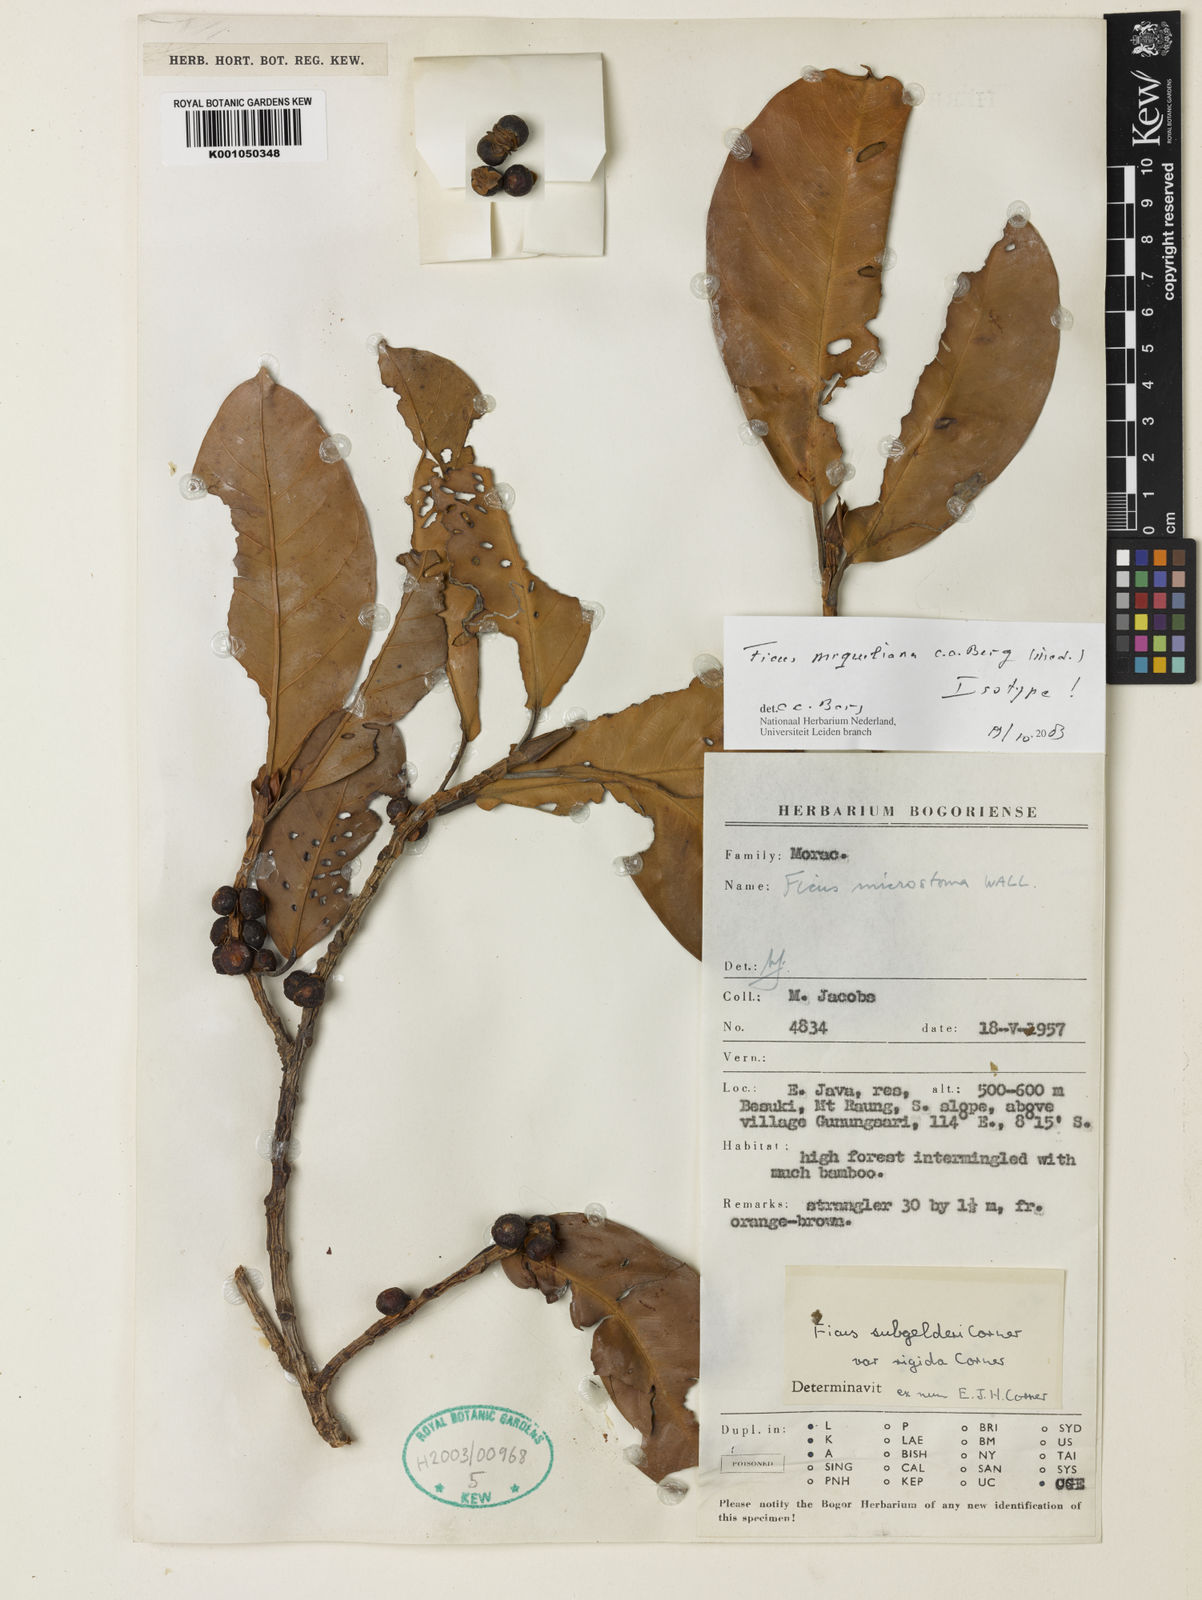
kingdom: Plantae
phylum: Tracheophyta
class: Magnoliopsida
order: Rosales
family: Moraceae
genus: Ficus
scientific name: Ficus miqueliana
